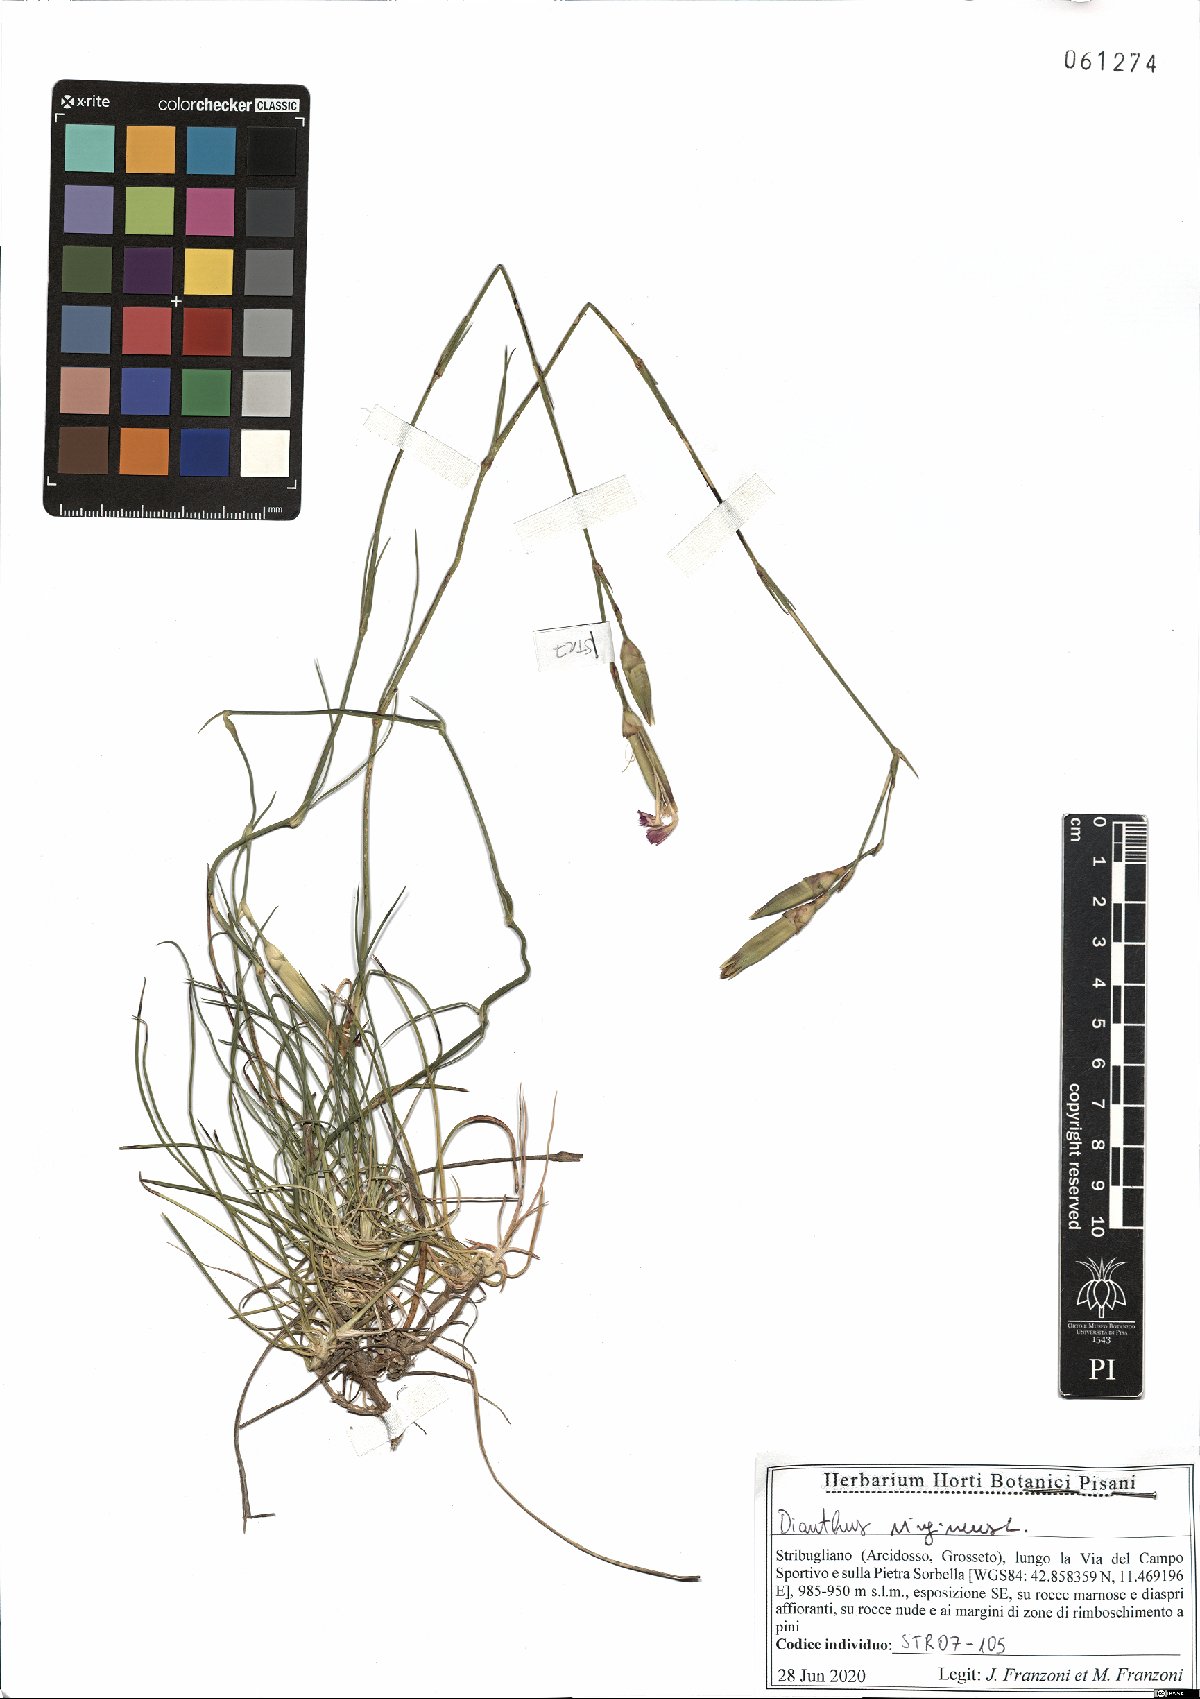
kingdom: Plantae
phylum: Tracheophyta
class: Magnoliopsida
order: Caryophyllales
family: Caryophyllaceae
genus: Dianthus
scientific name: Dianthus virgineus
